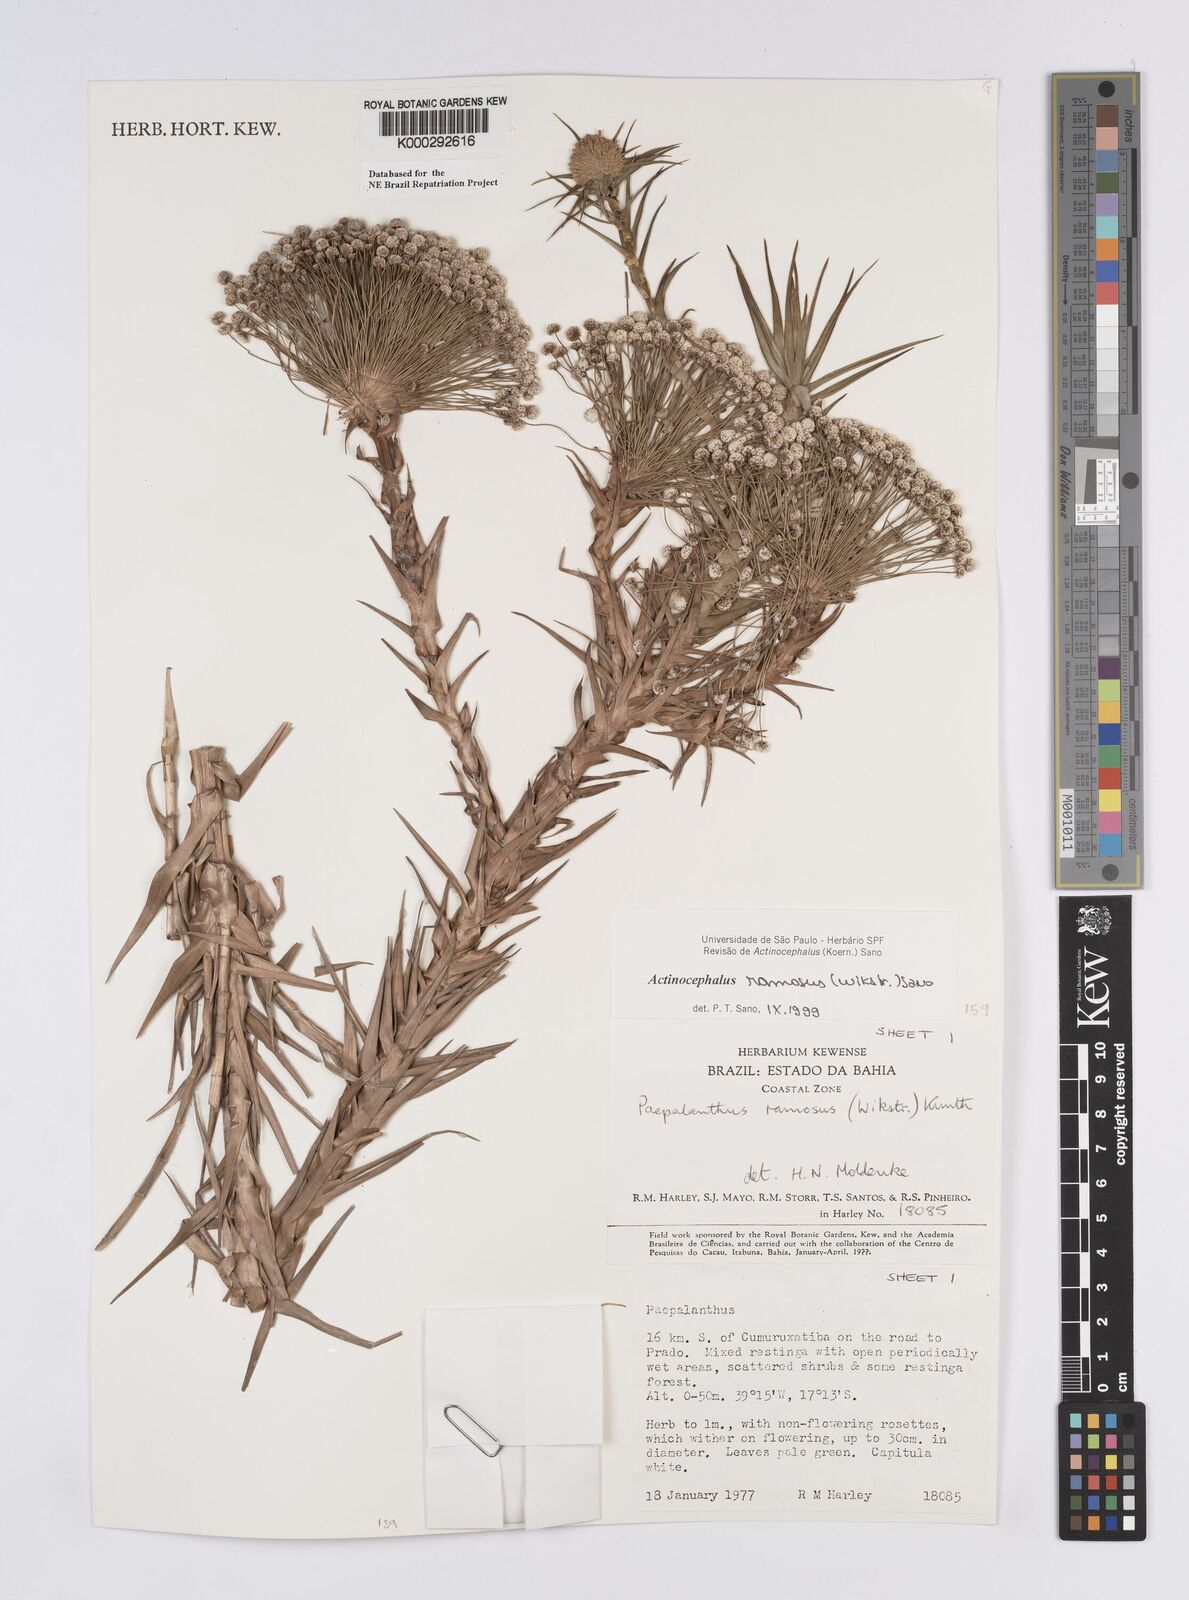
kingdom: Plantae
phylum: Tracheophyta
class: Liliopsida
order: Poales
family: Eriocaulaceae
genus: Paepalanthus
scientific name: Paepalanthus ramosus
